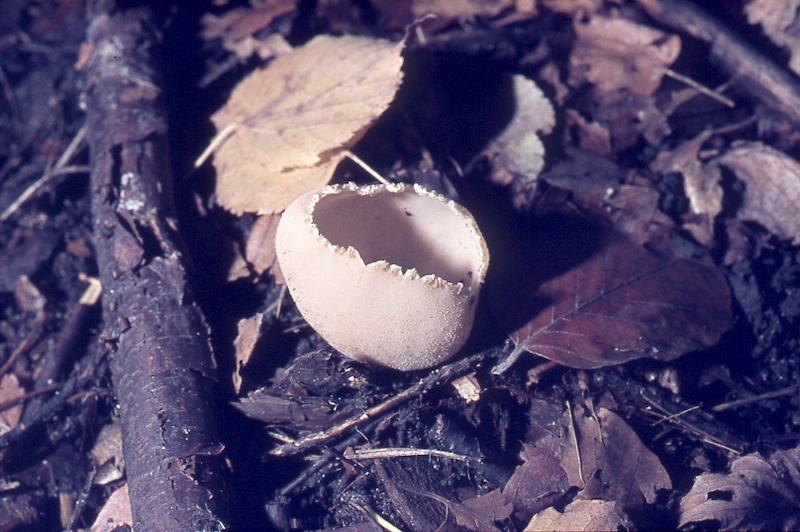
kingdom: Fungi
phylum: Ascomycota
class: Pezizomycetes
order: Pezizales
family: Otideaceae
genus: Otidea
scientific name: Otidea alutacea
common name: Tan ear
